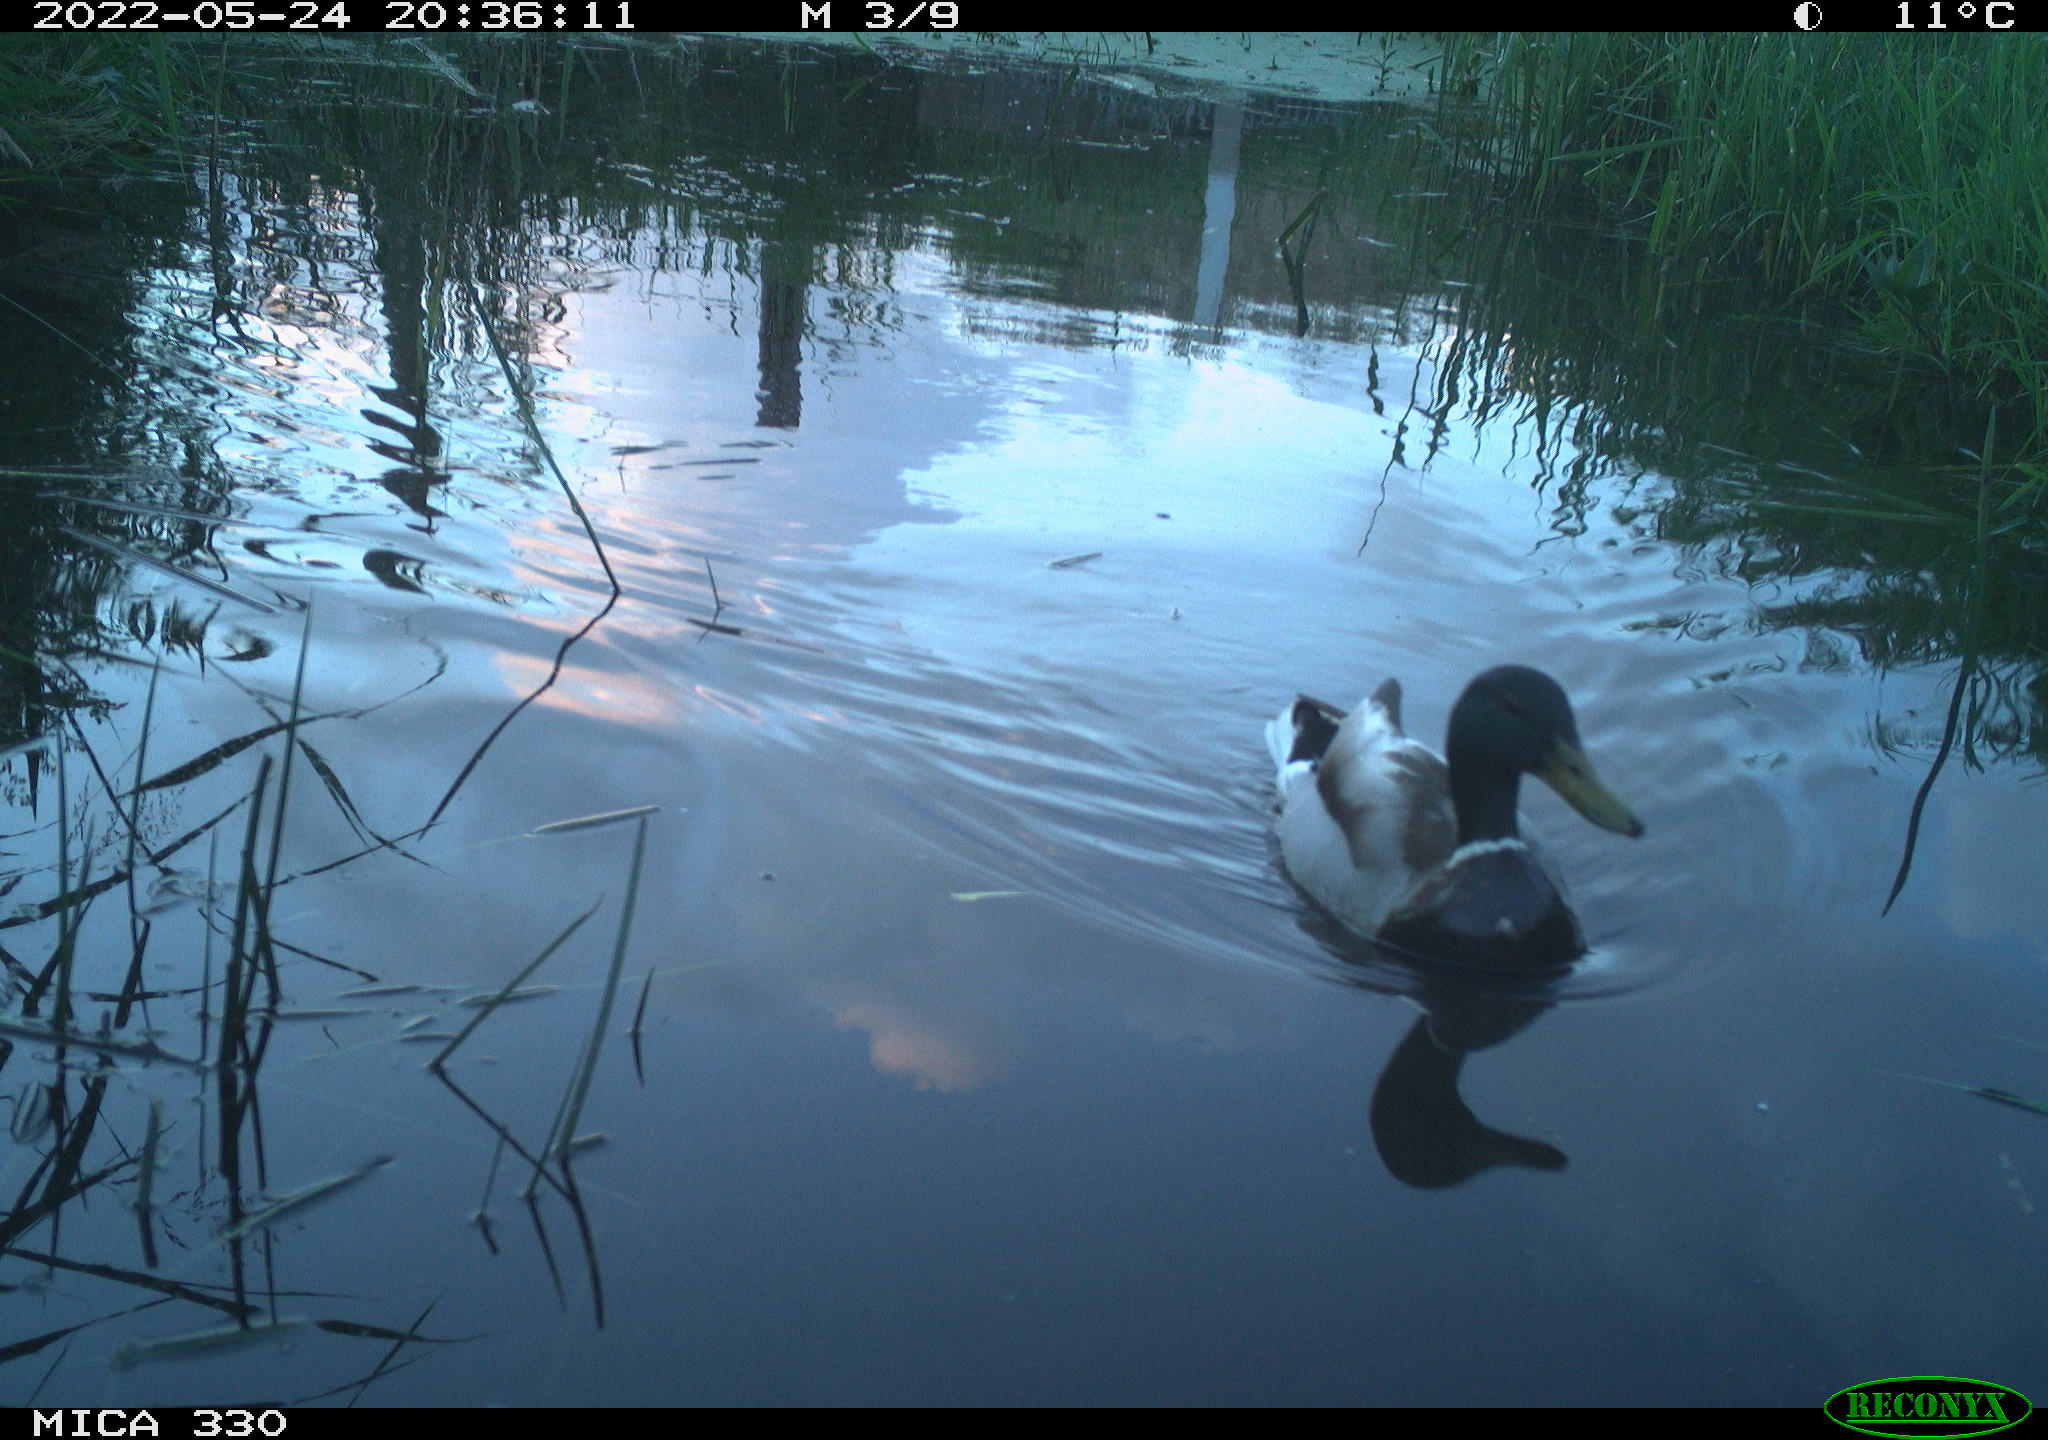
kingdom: Animalia
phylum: Chordata
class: Aves
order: Anseriformes
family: Anatidae
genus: Anas
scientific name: Anas platyrhynchos
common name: Mallard
